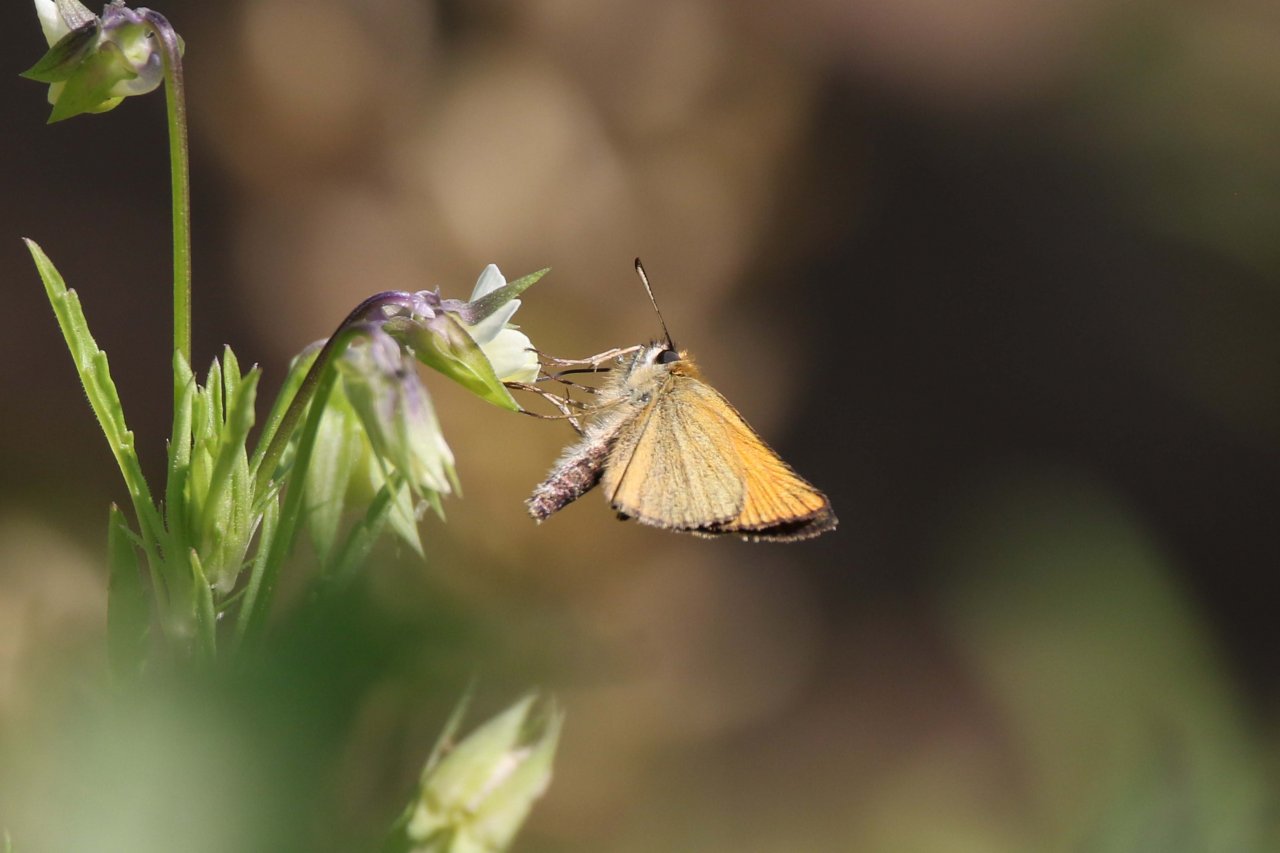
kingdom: Animalia
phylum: Arthropoda
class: Insecta
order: Lepidoptera
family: Hesperiidae
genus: Thymelicus
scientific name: Thymelicus lineola
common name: European Skipper
